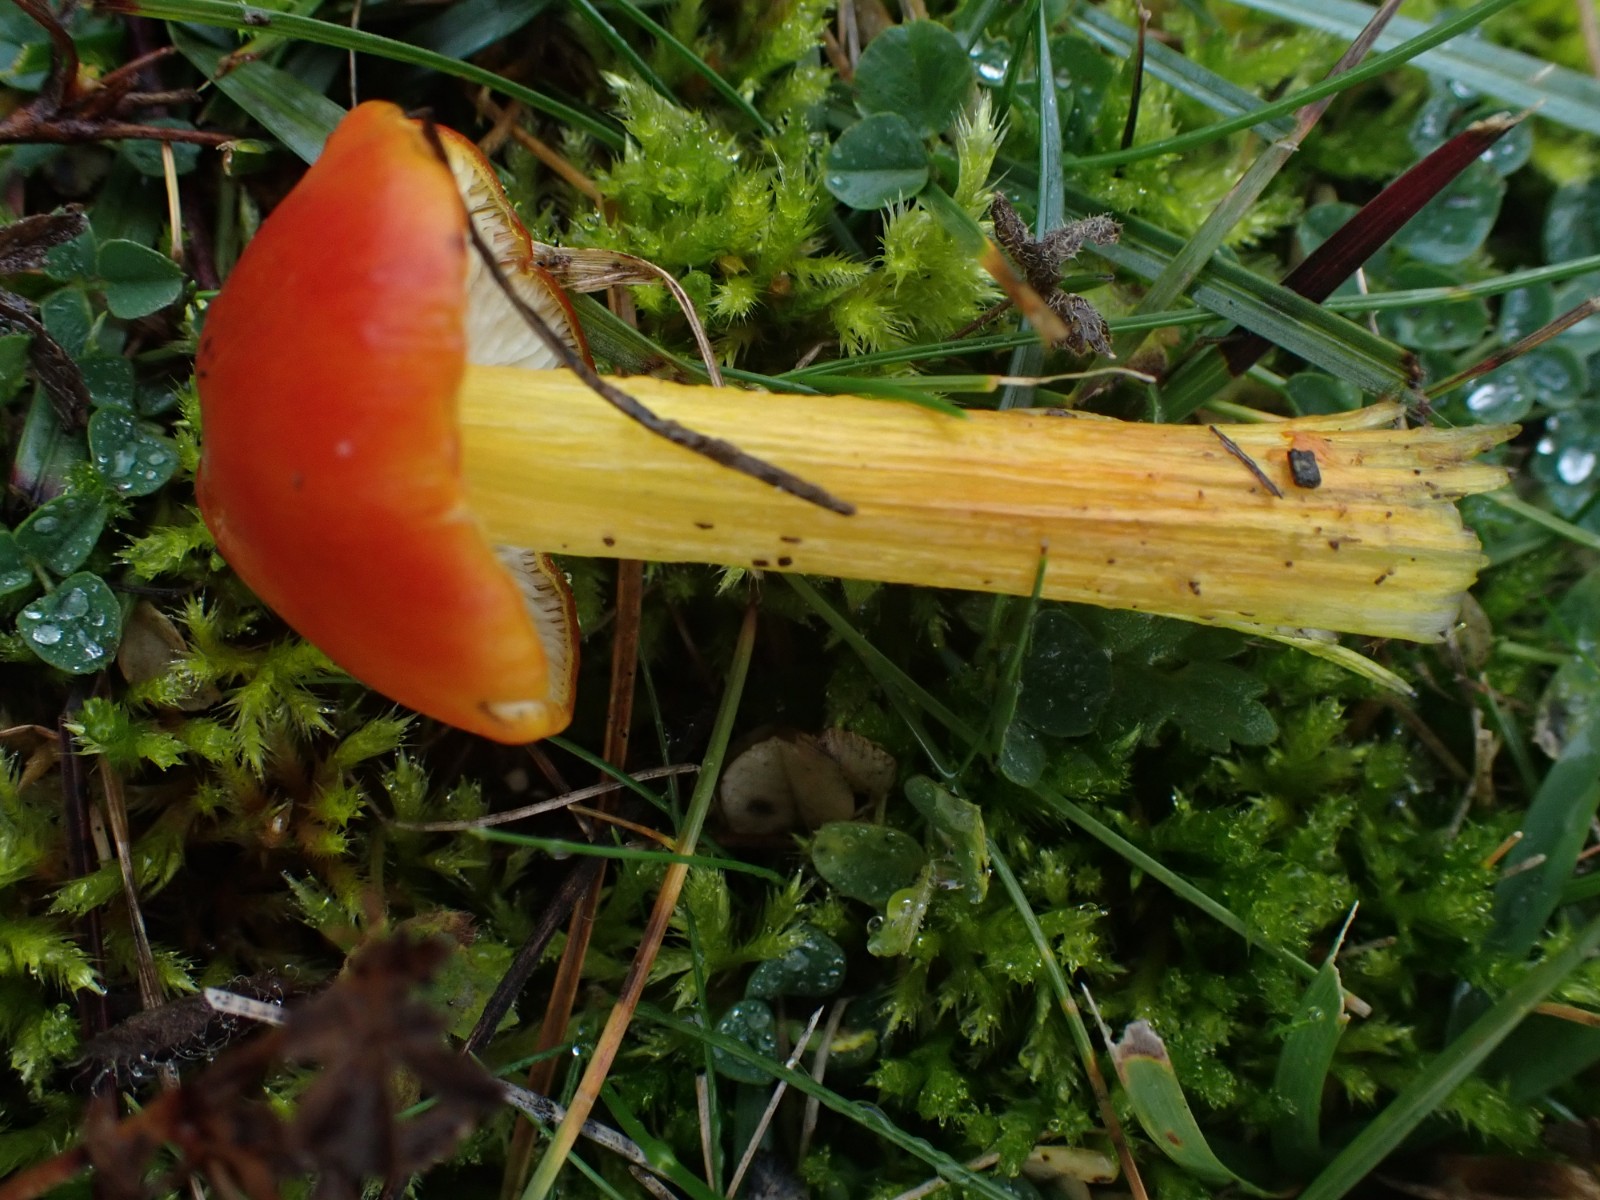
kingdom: Fungi
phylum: Basidiomycota
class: Agaricomycetes
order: Agaricales
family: Hygrophoraceae
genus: Hygrocybe
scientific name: Hygrocybe conica
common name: kegle-vokshat
